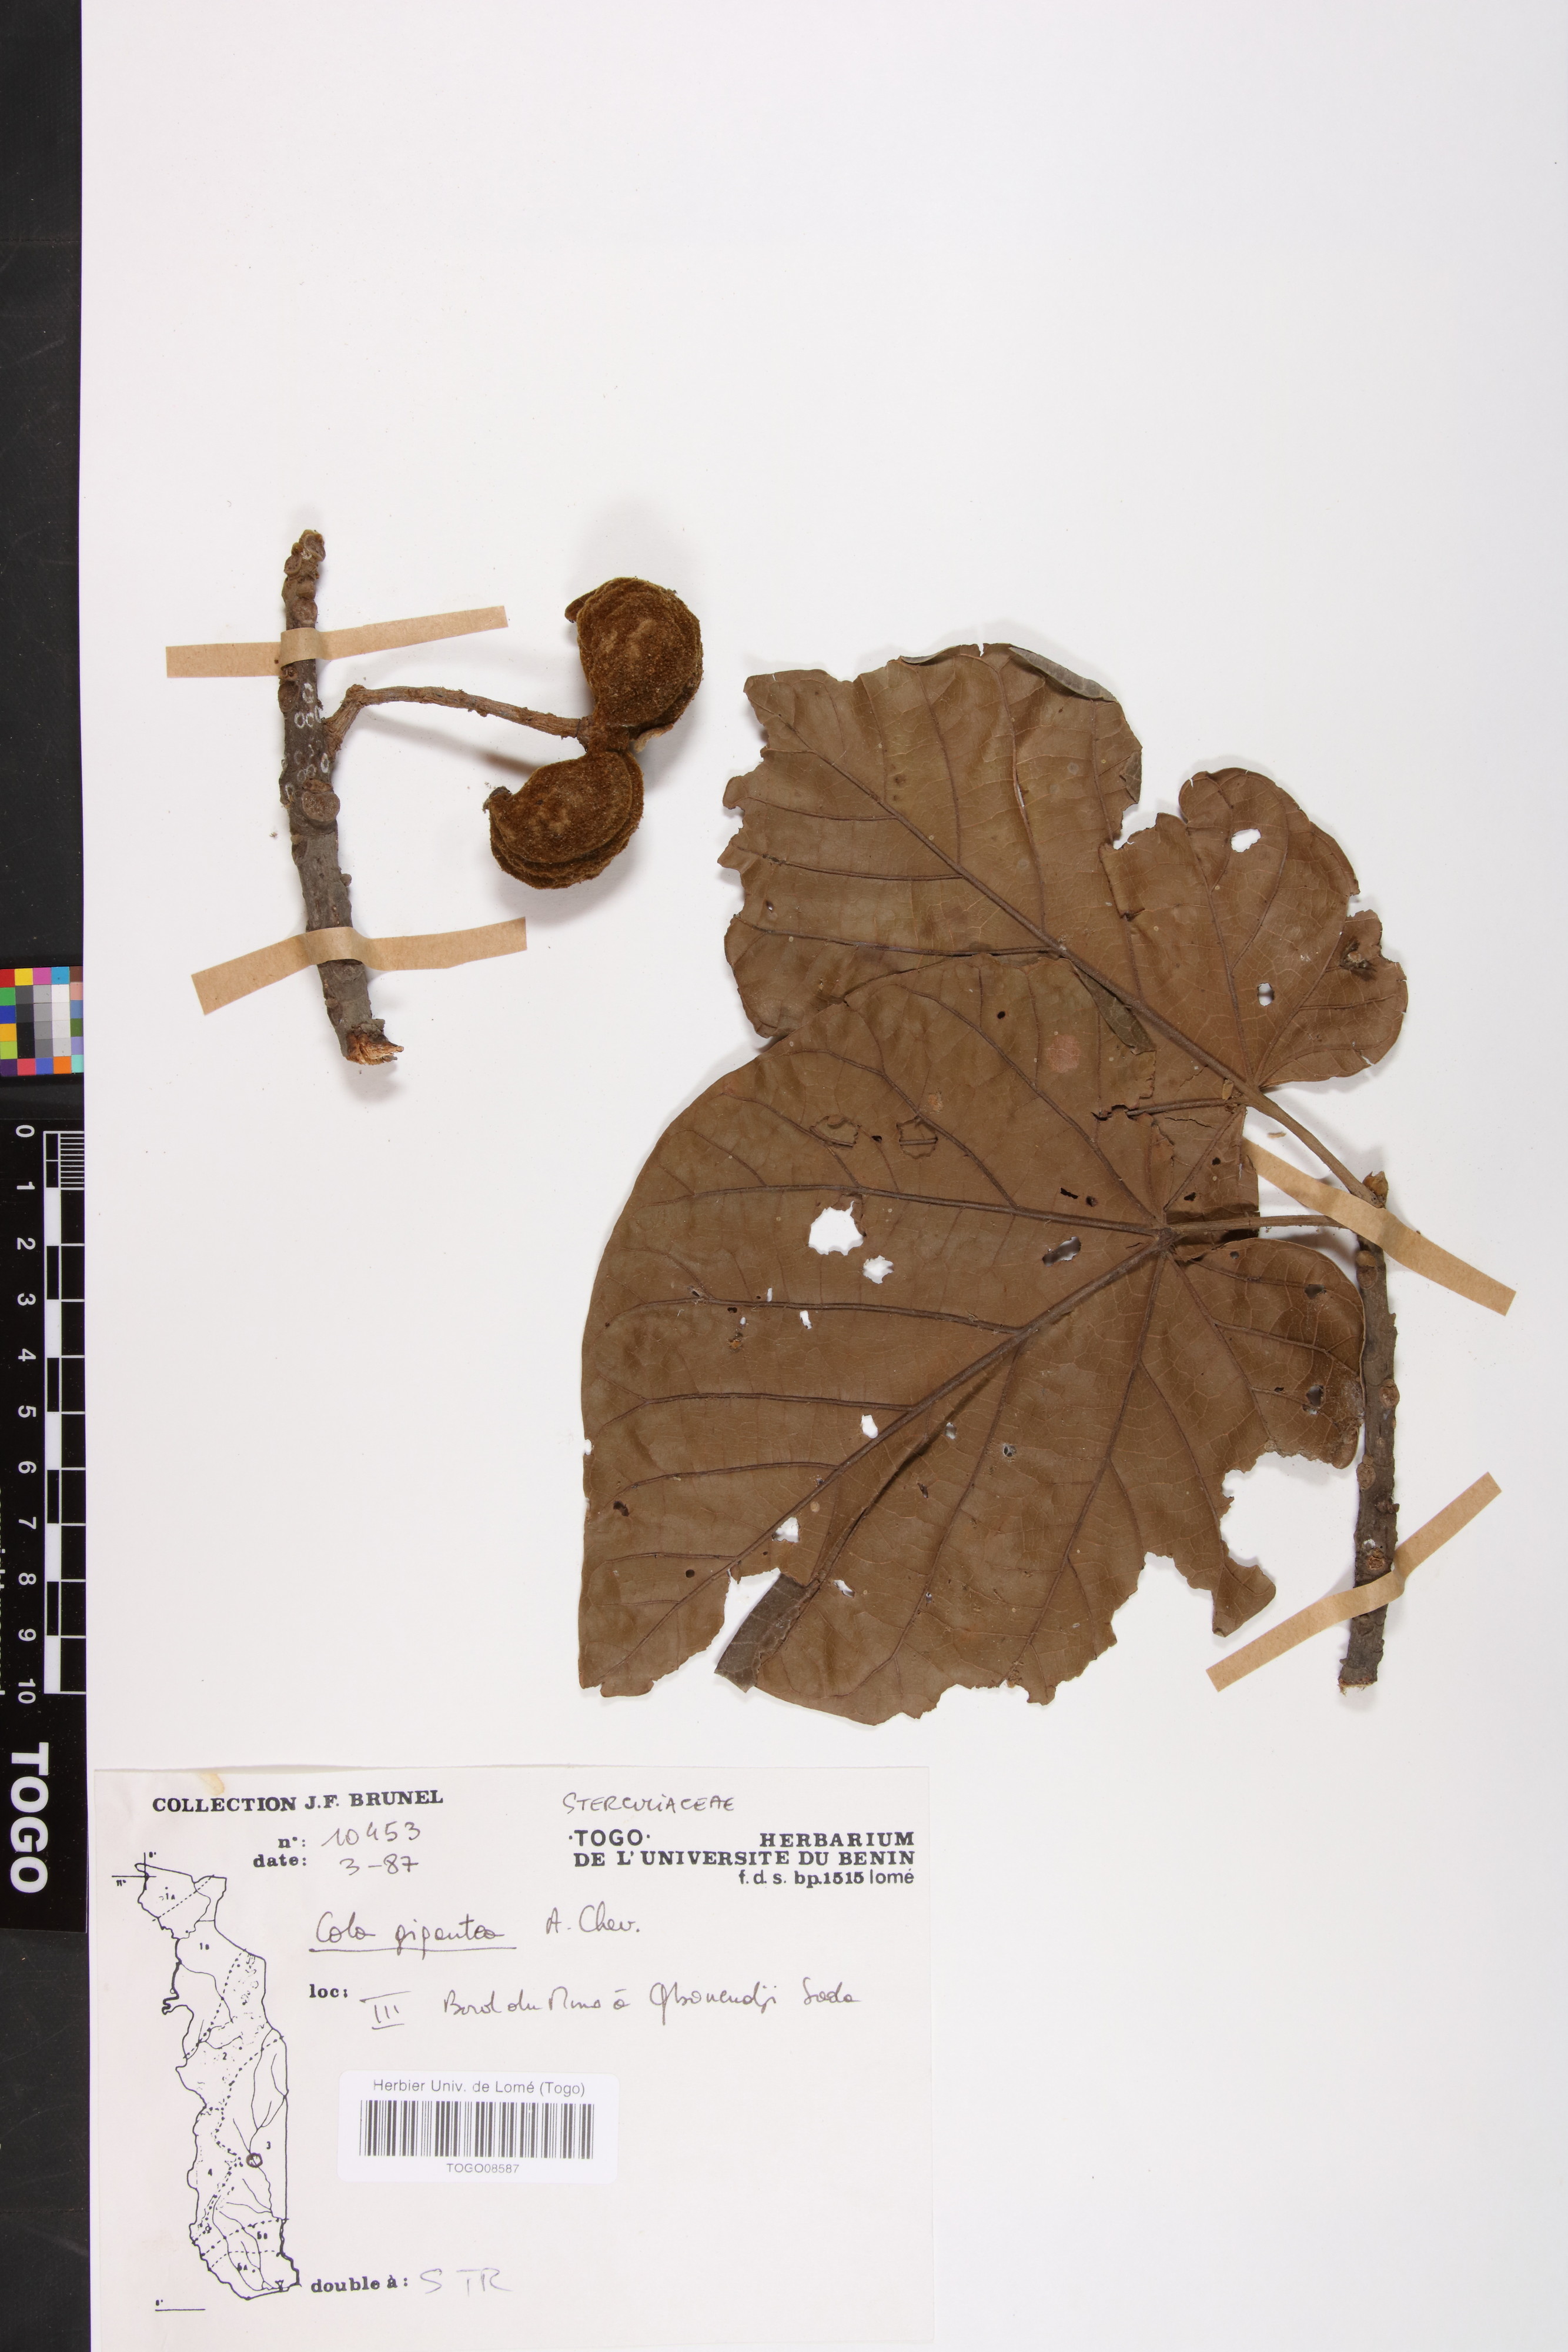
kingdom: Plantae
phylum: Tracheophyta
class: Magnoliopsida
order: Malvales
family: Malvaceae
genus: Cola
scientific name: Cola gigantea
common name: Giant cola
